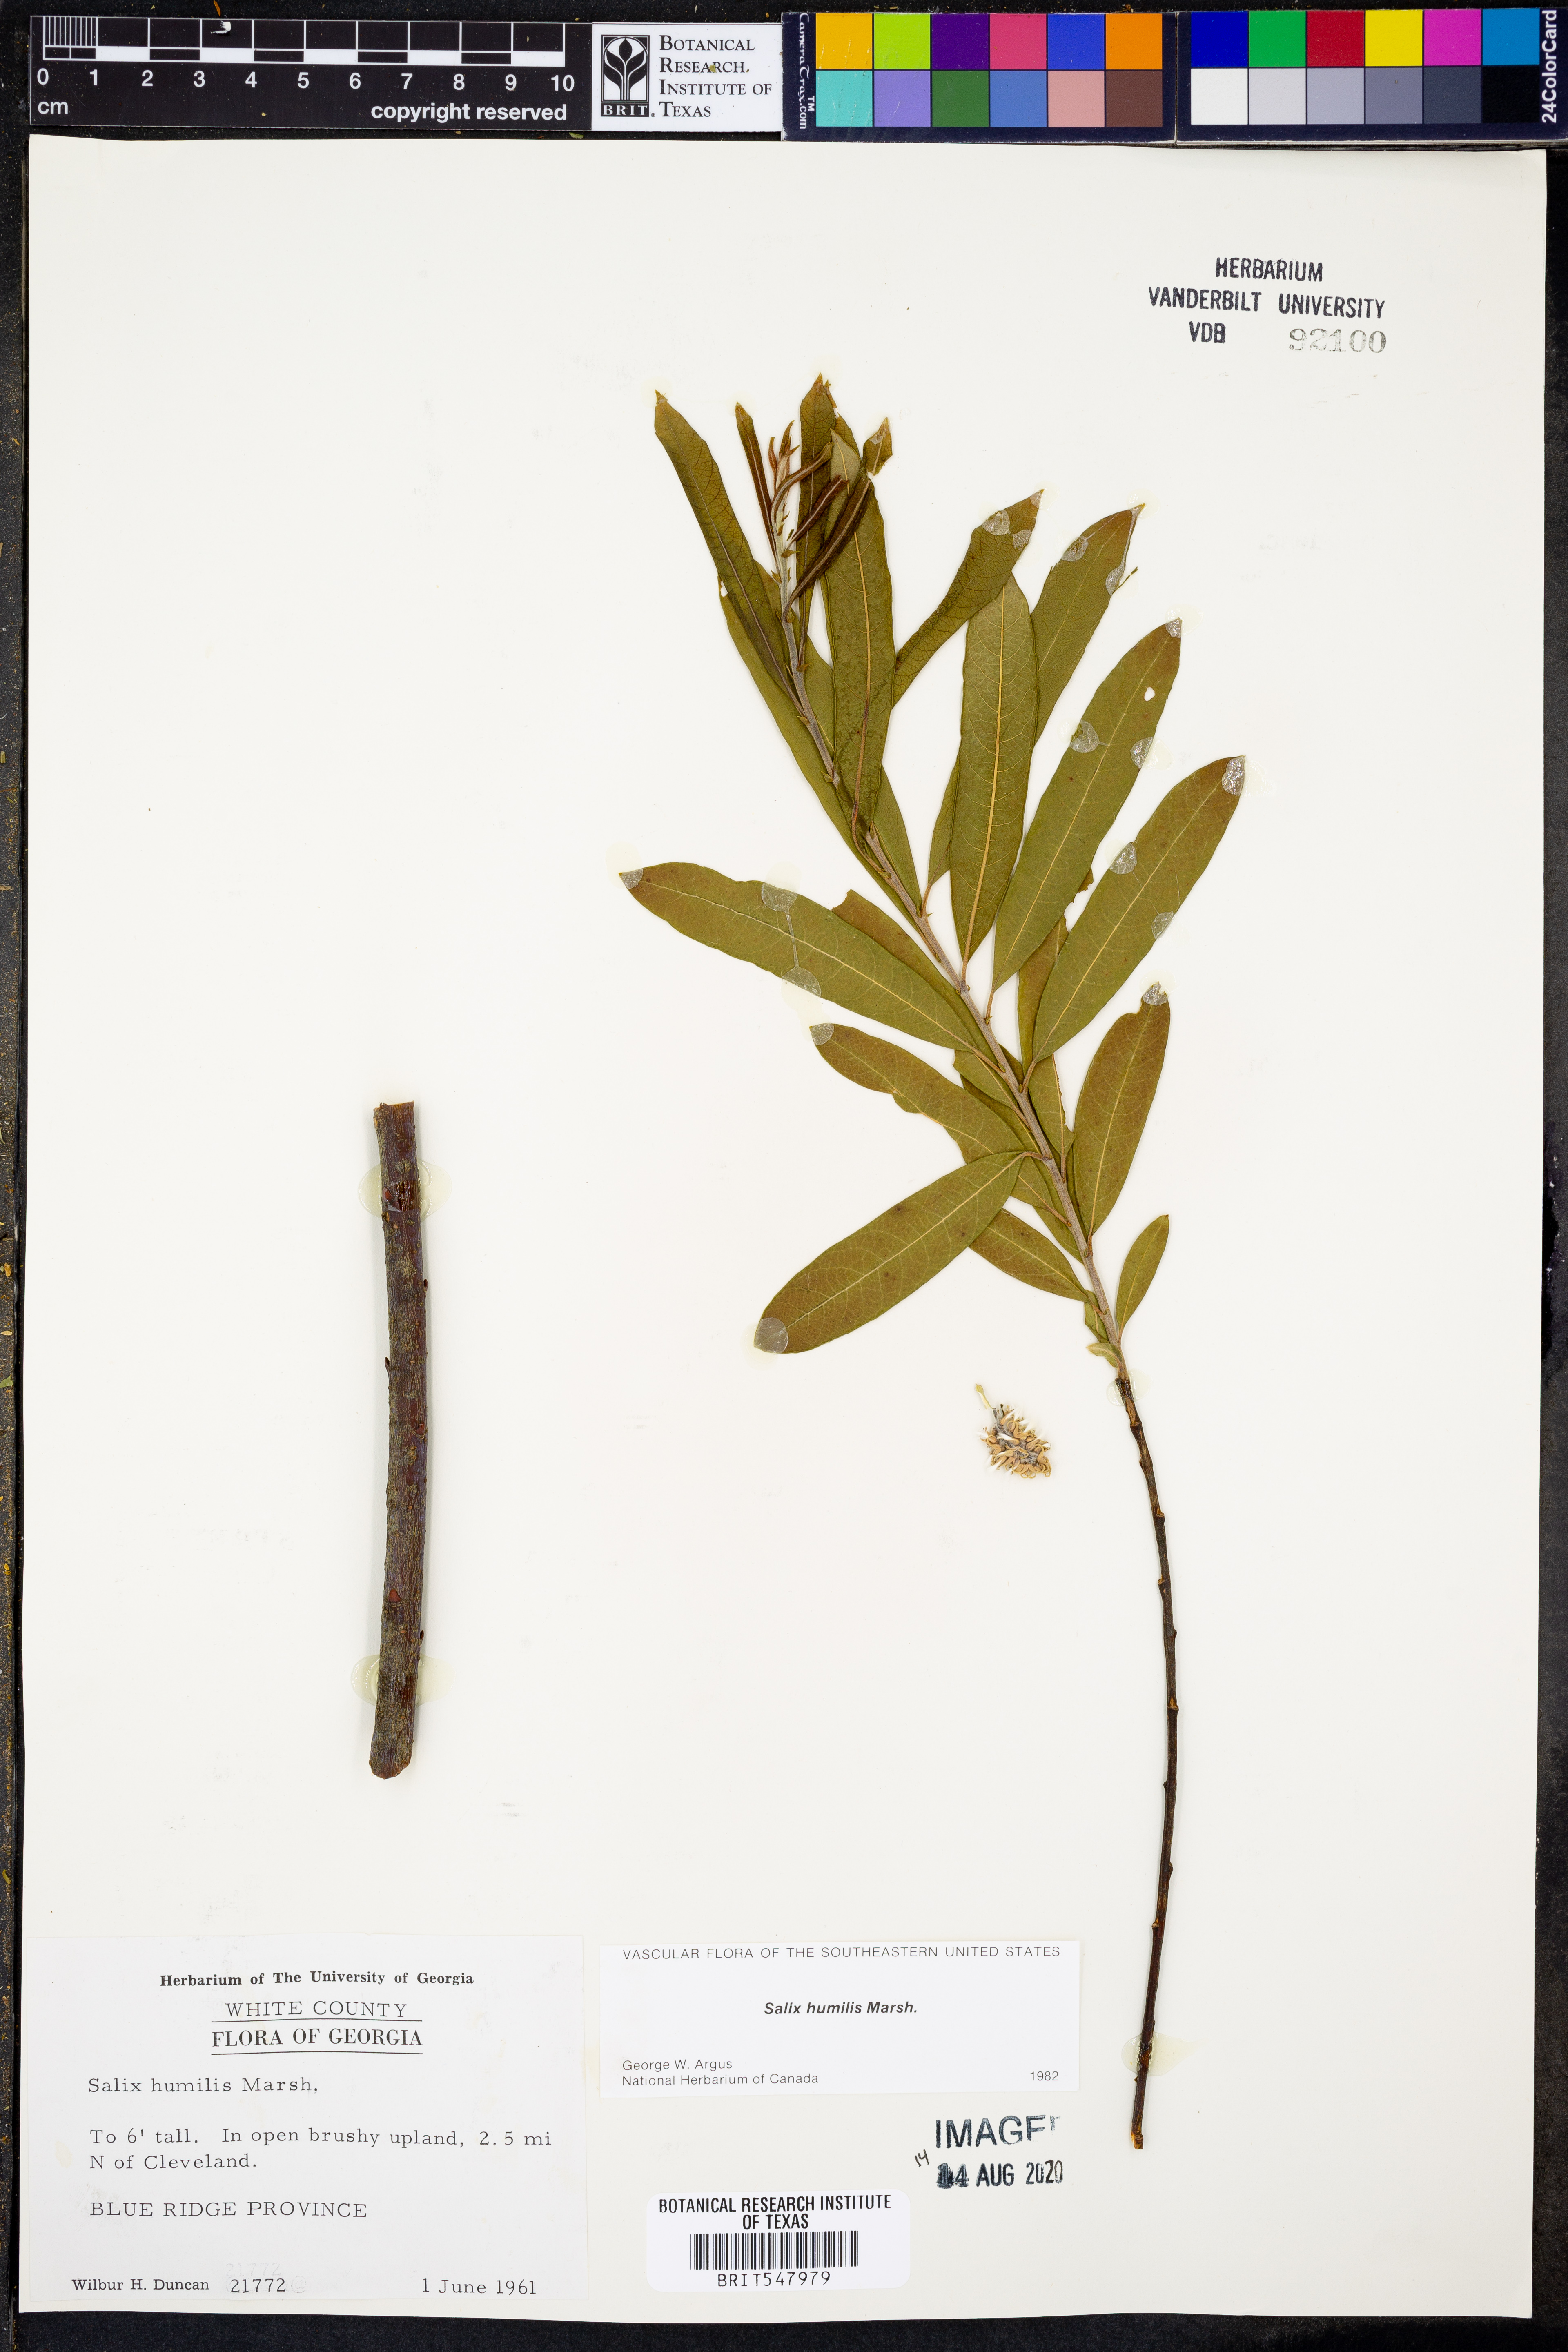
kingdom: Plantae
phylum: Tracheophyta
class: Magnoliopsida
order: Malpighiales
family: Salicaceae
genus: Salix
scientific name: Salix humilis
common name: Prairie willow
